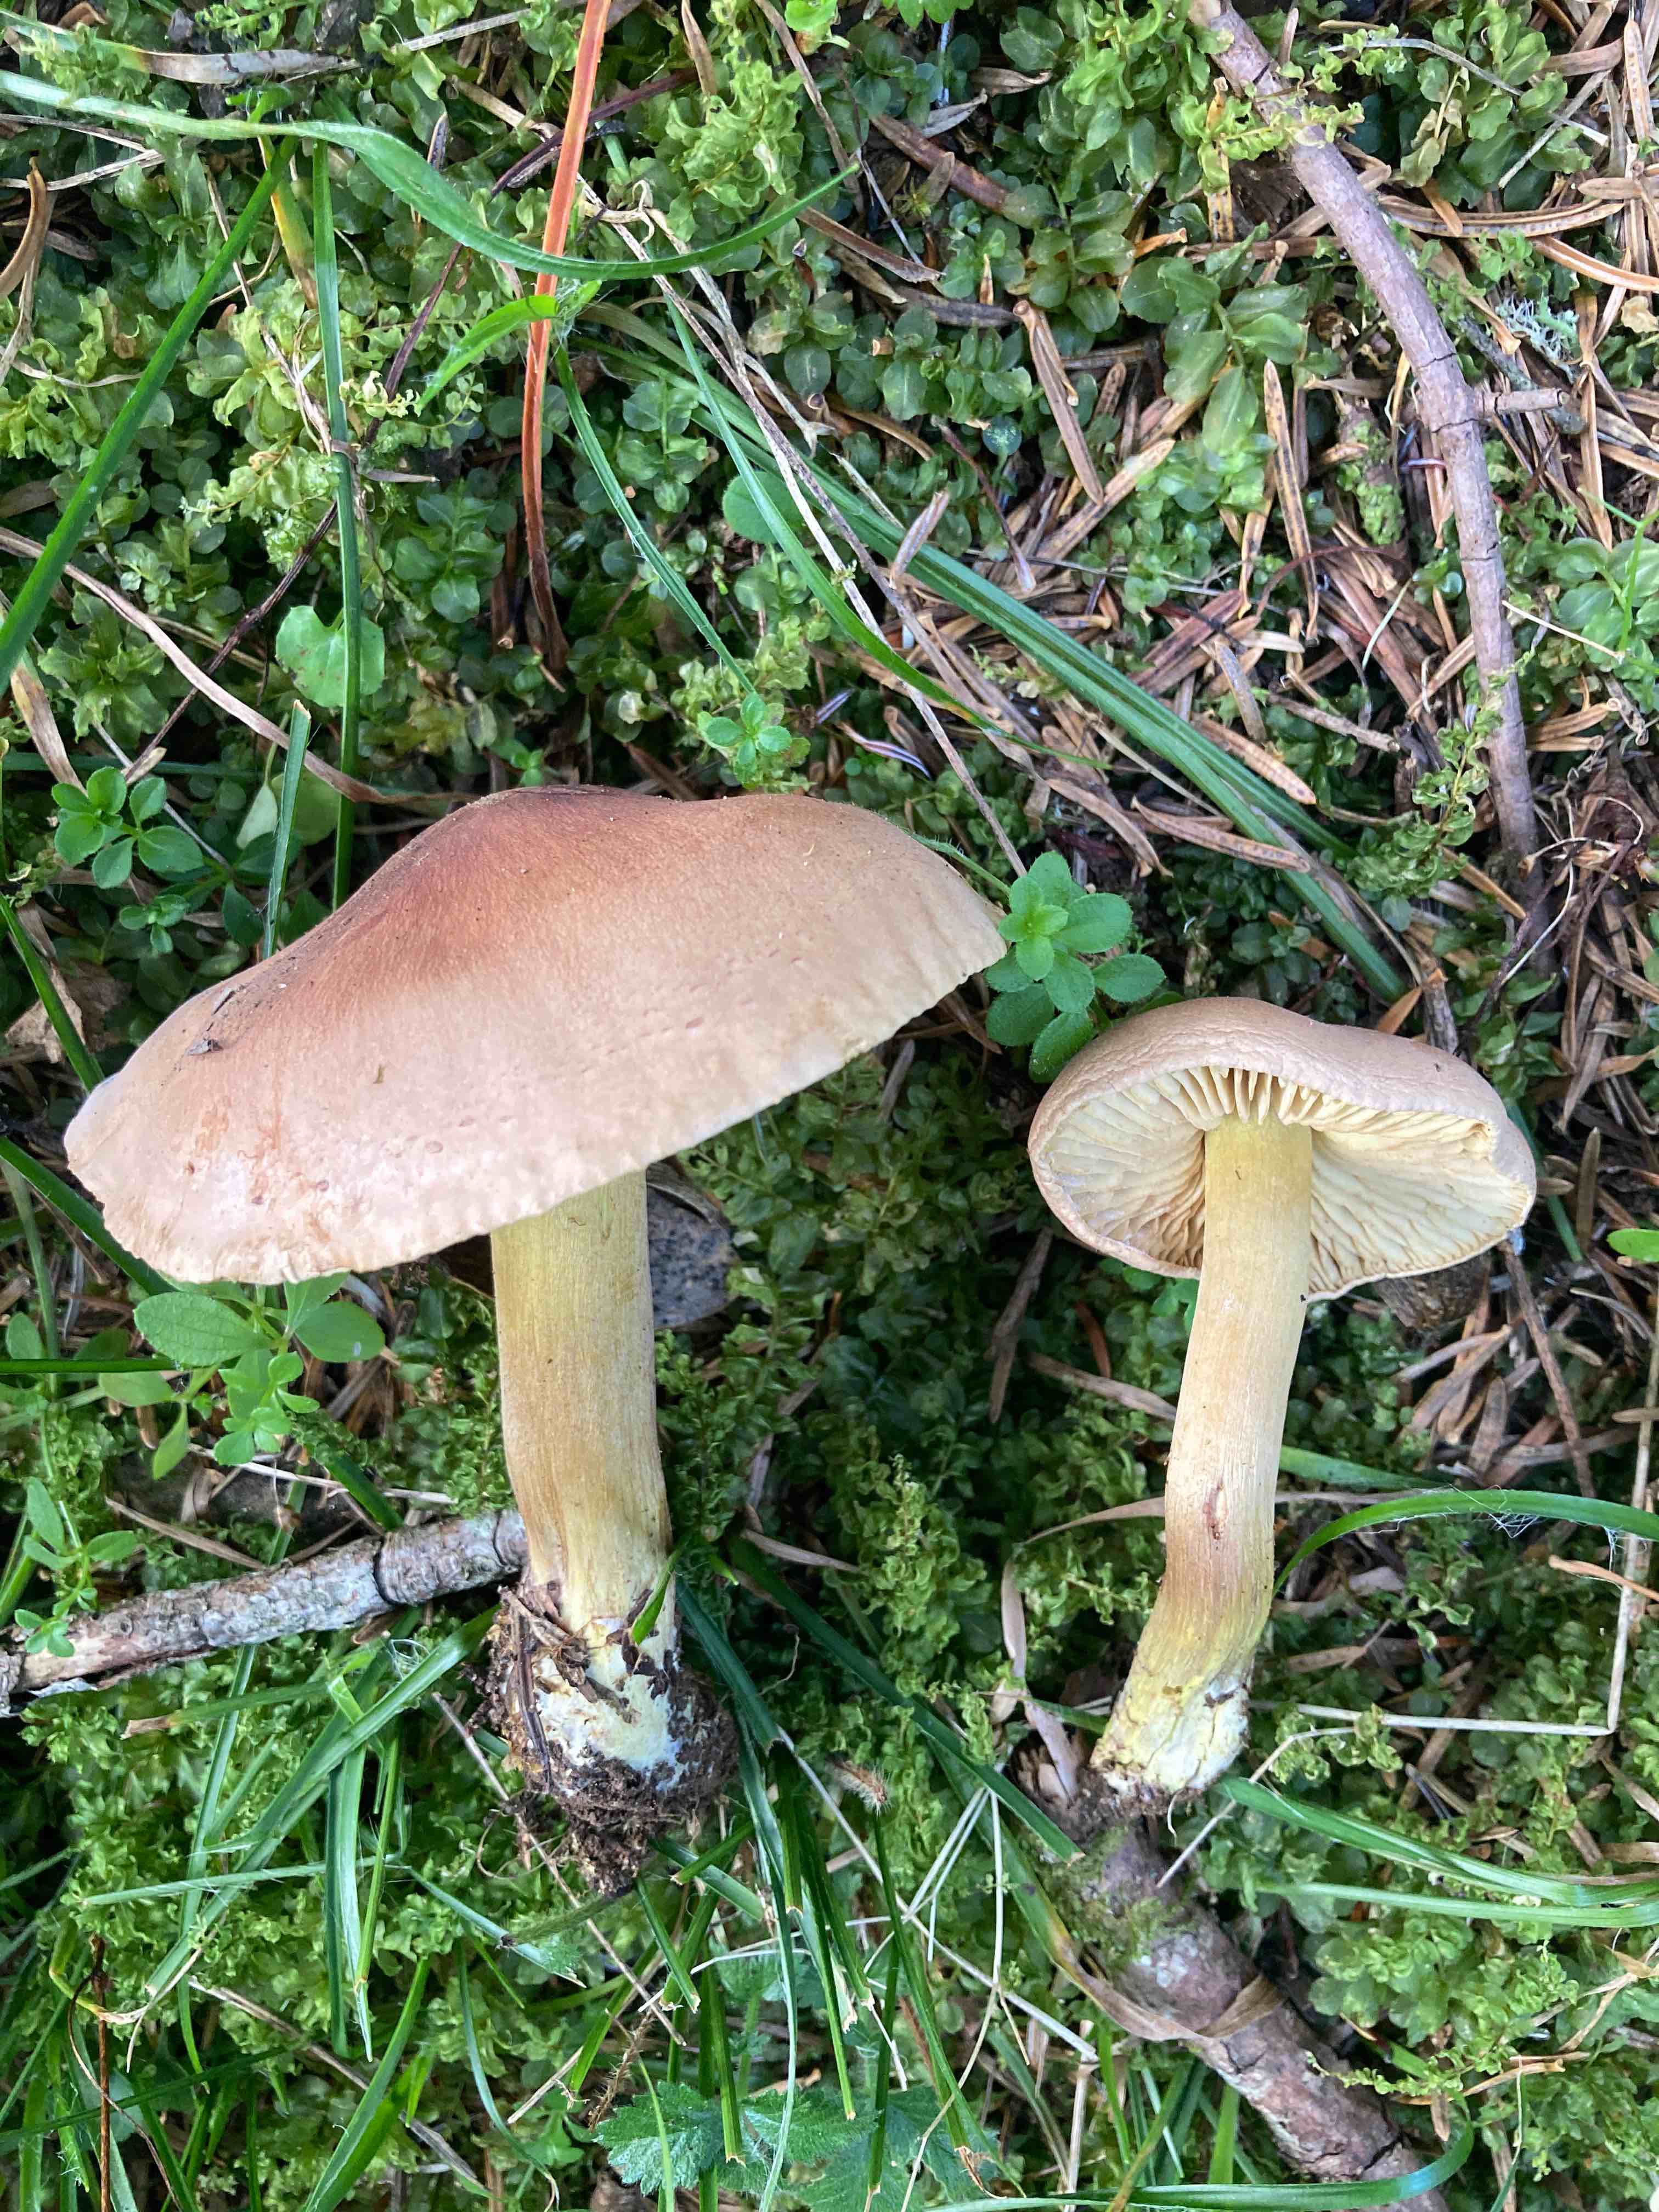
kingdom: Fungi
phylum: Basidiomycota
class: Agaricomycetes
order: Agaricales
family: Tricholomataceae
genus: Tricholoma
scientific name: Tricholoma sulphureum
